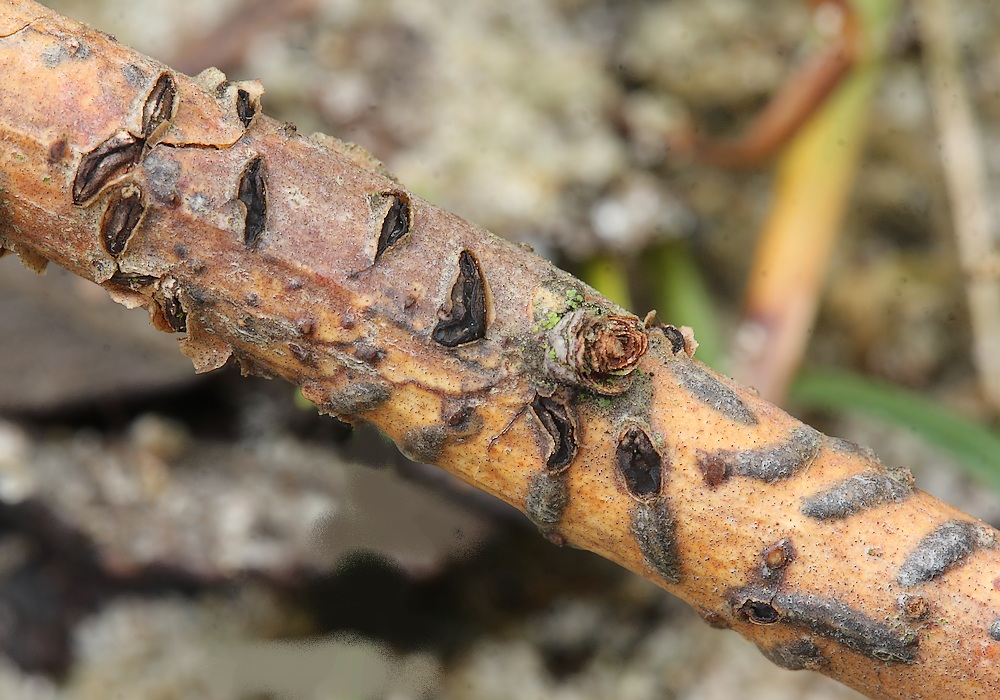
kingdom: Fungi
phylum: Ascomycota
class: Leotiomycetes
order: Rhytismatales
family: Rhytismataceae
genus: Colpoma
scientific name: Colpoma quercinum
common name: ege-sprækkeskive
